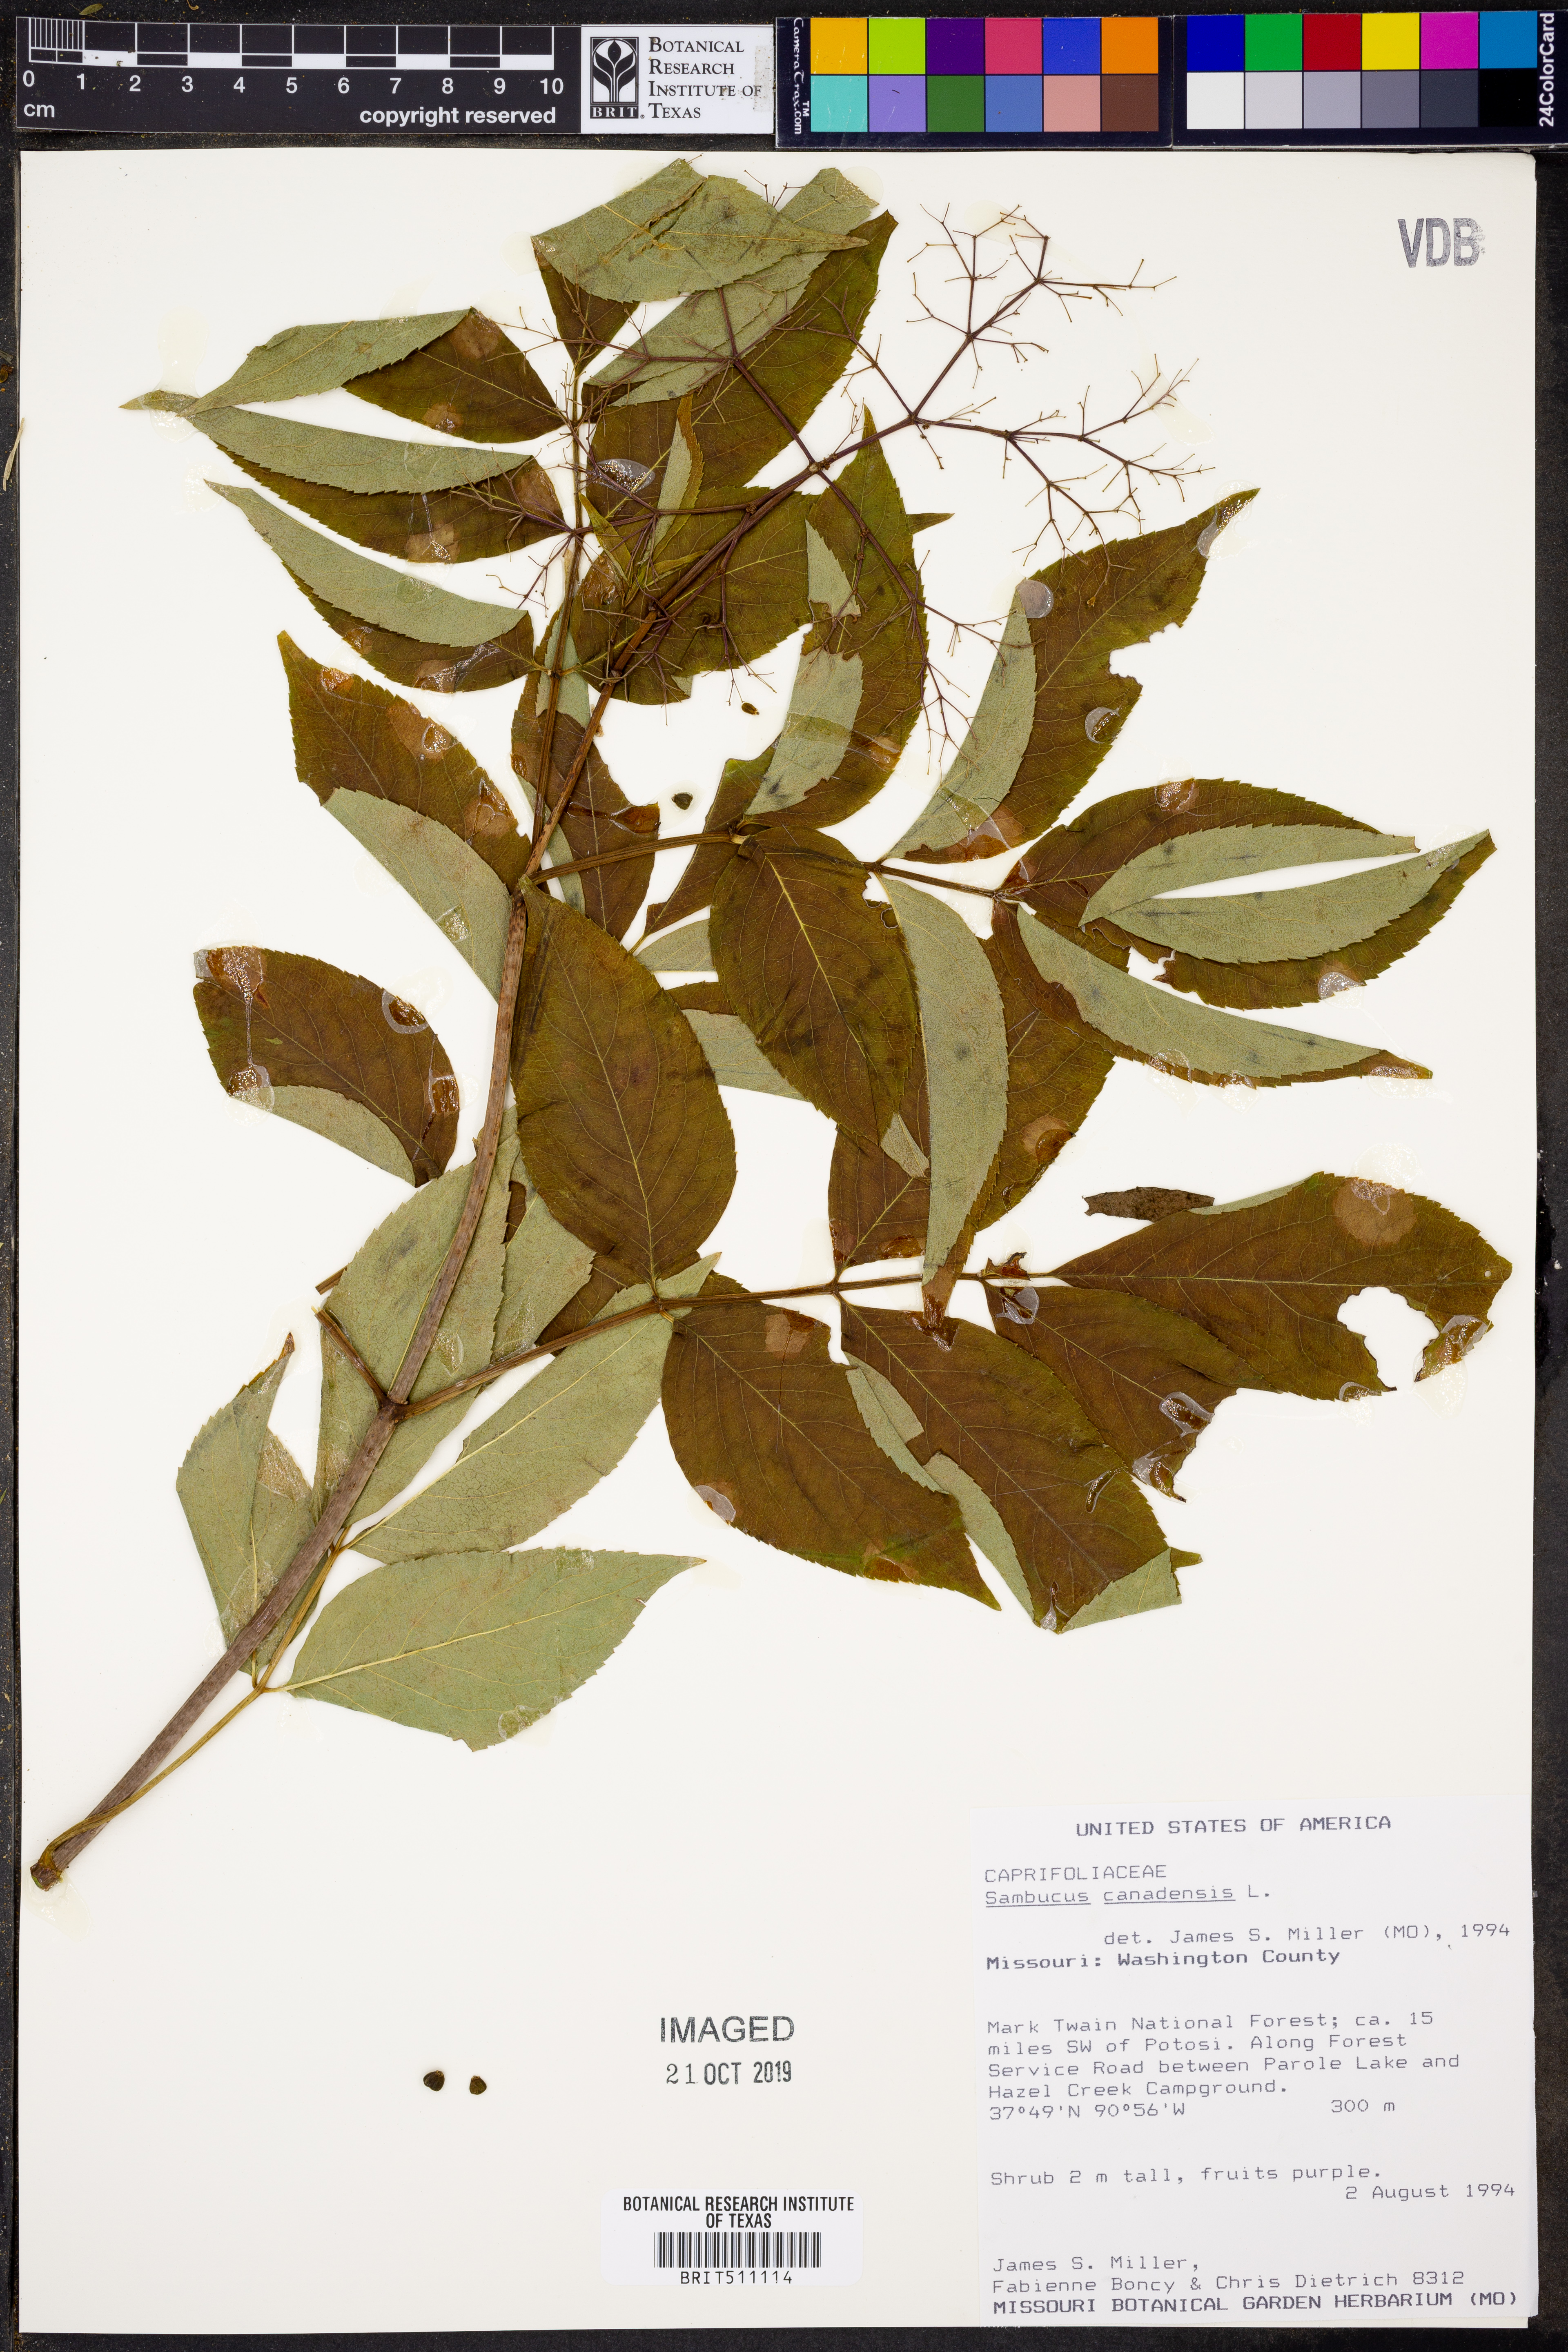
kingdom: Plantae
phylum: Tracheophyta
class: Magnoliopsida
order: Dipsacales
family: Viburnaceae
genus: Sambucus
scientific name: Sambucus canadensis
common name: American elder
